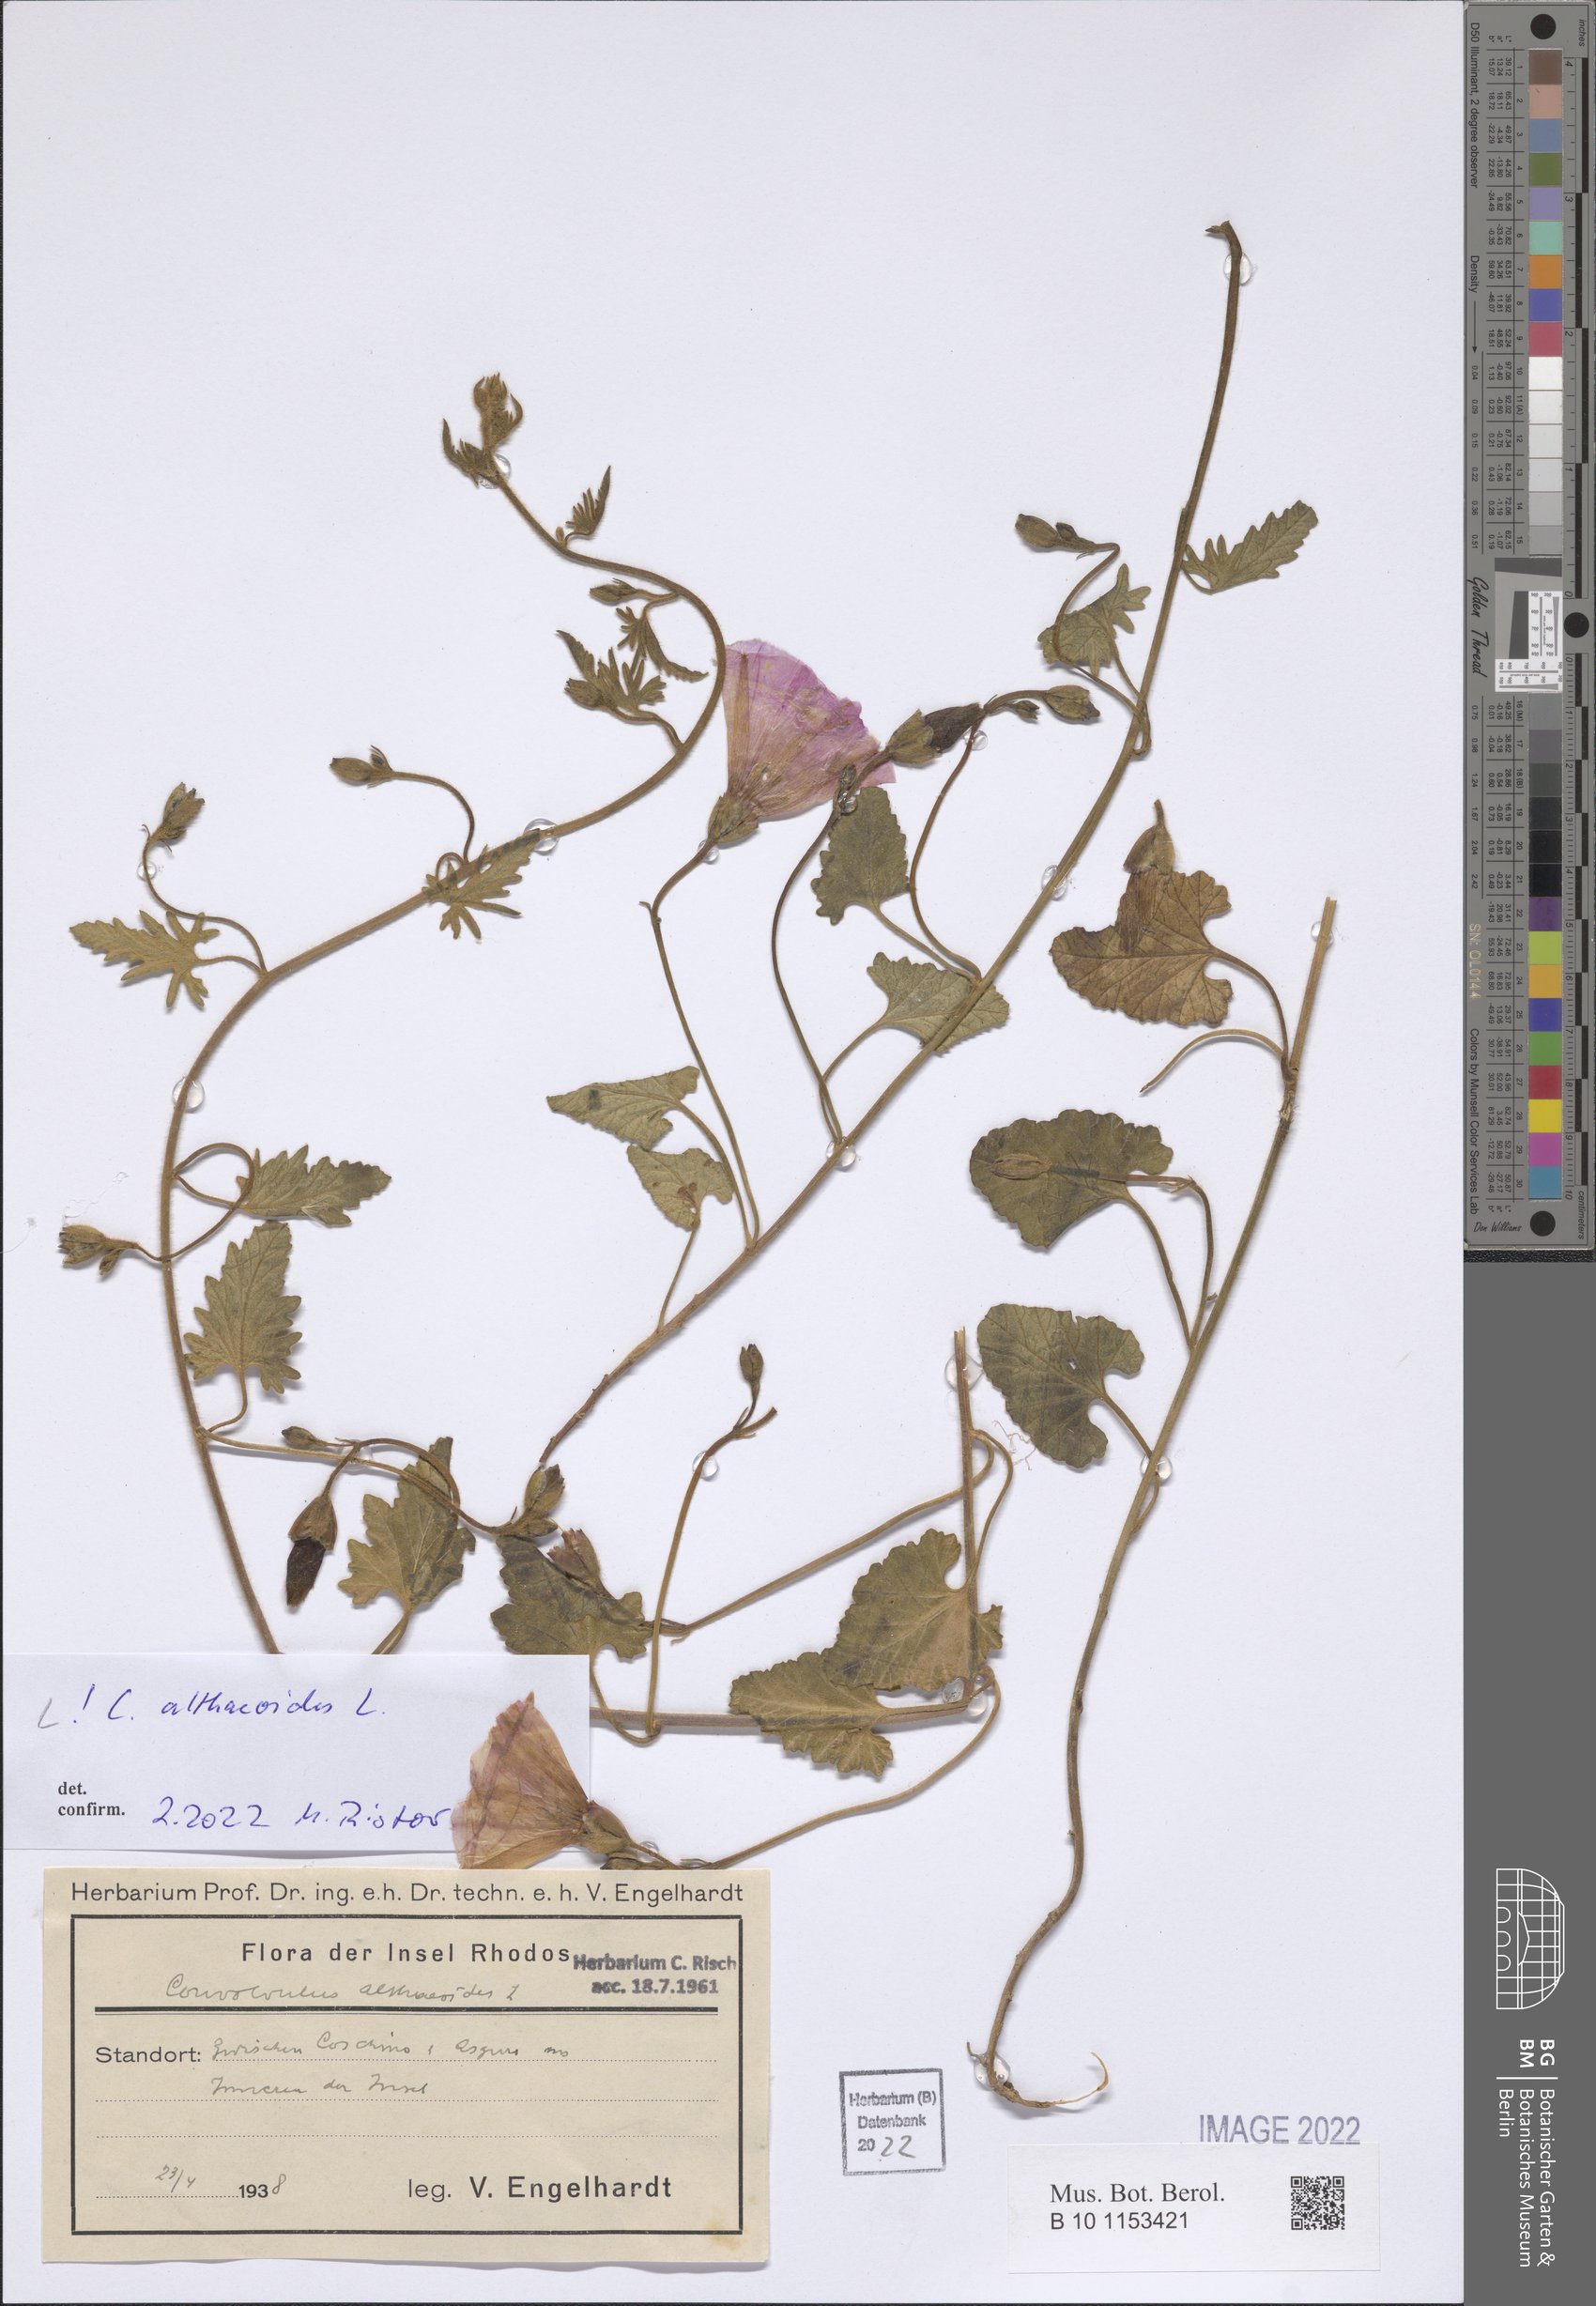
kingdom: Plantae
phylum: Tracheophyta
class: Magnoliopsida
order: Solanales
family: Convolvulaceae
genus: Convolvulus
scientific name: Convolvulus althaeoides
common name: Mallow bindweed
